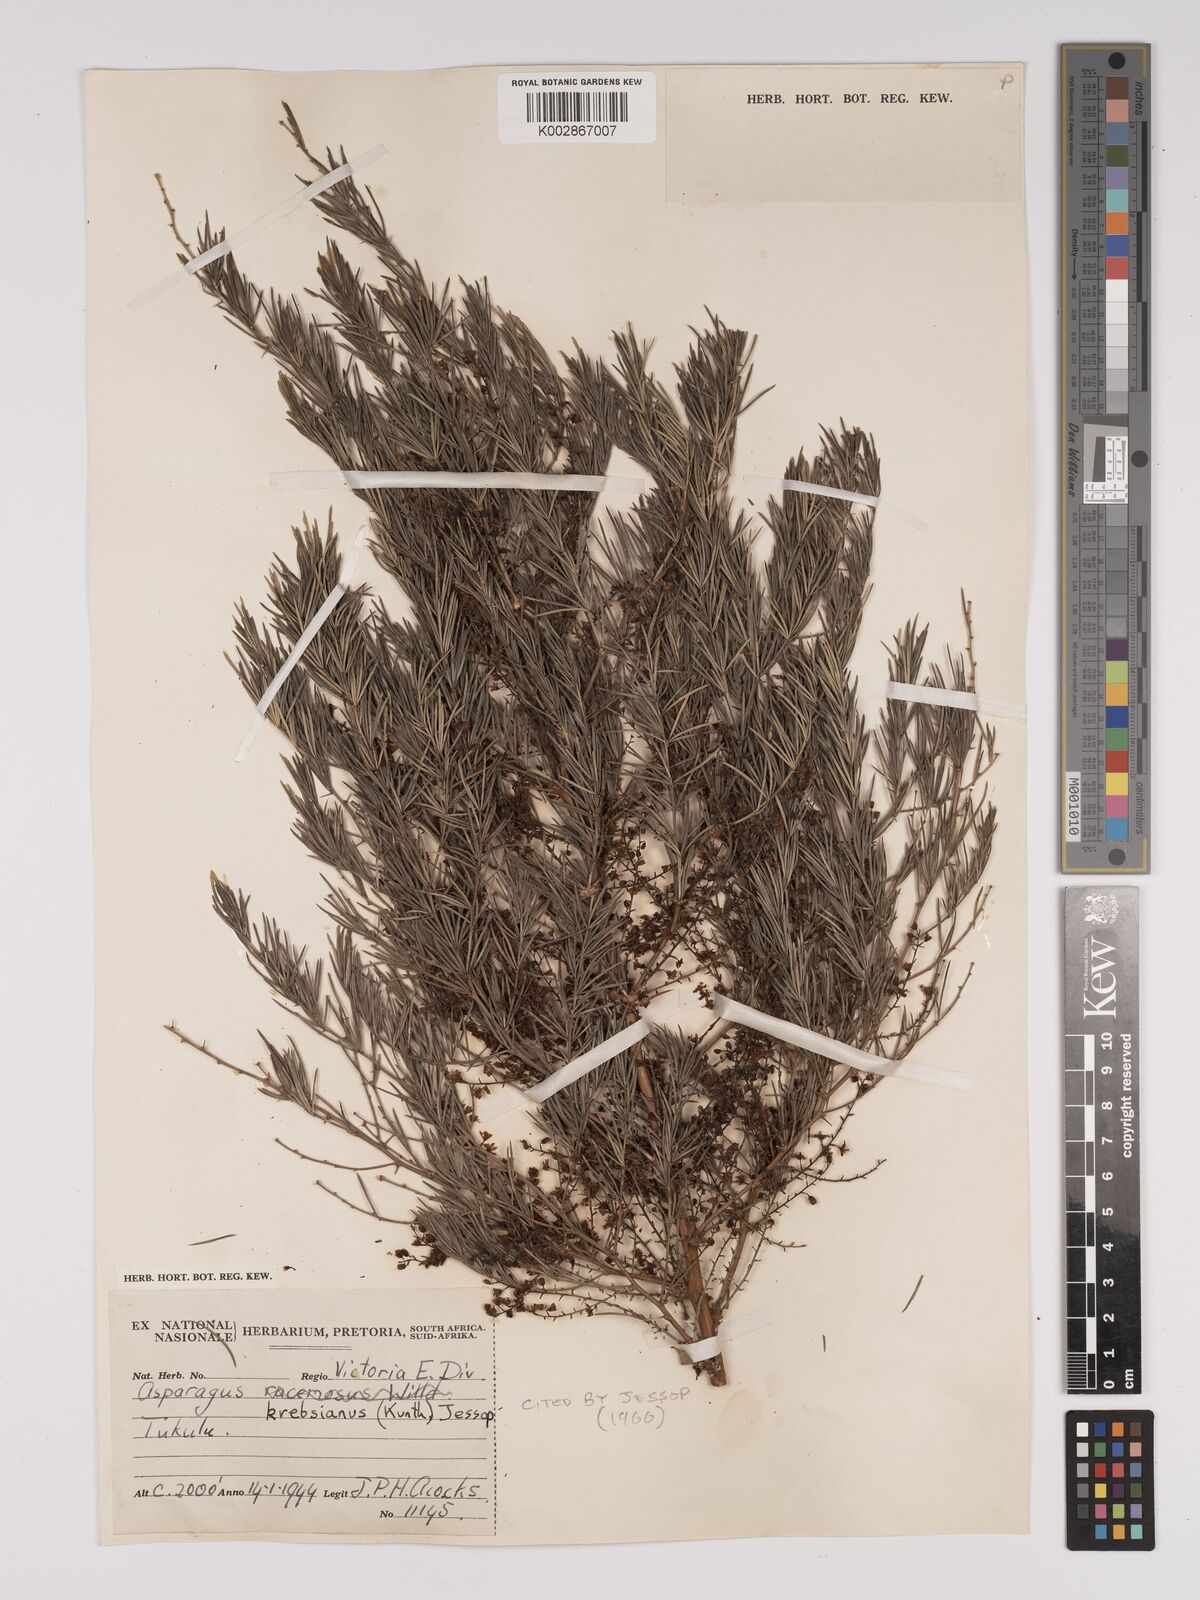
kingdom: Plantae
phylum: Tracheophyta
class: Liliopsida
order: Asparagales
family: Asparagaceae
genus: Asparagus
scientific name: Asparagus breslerianus
